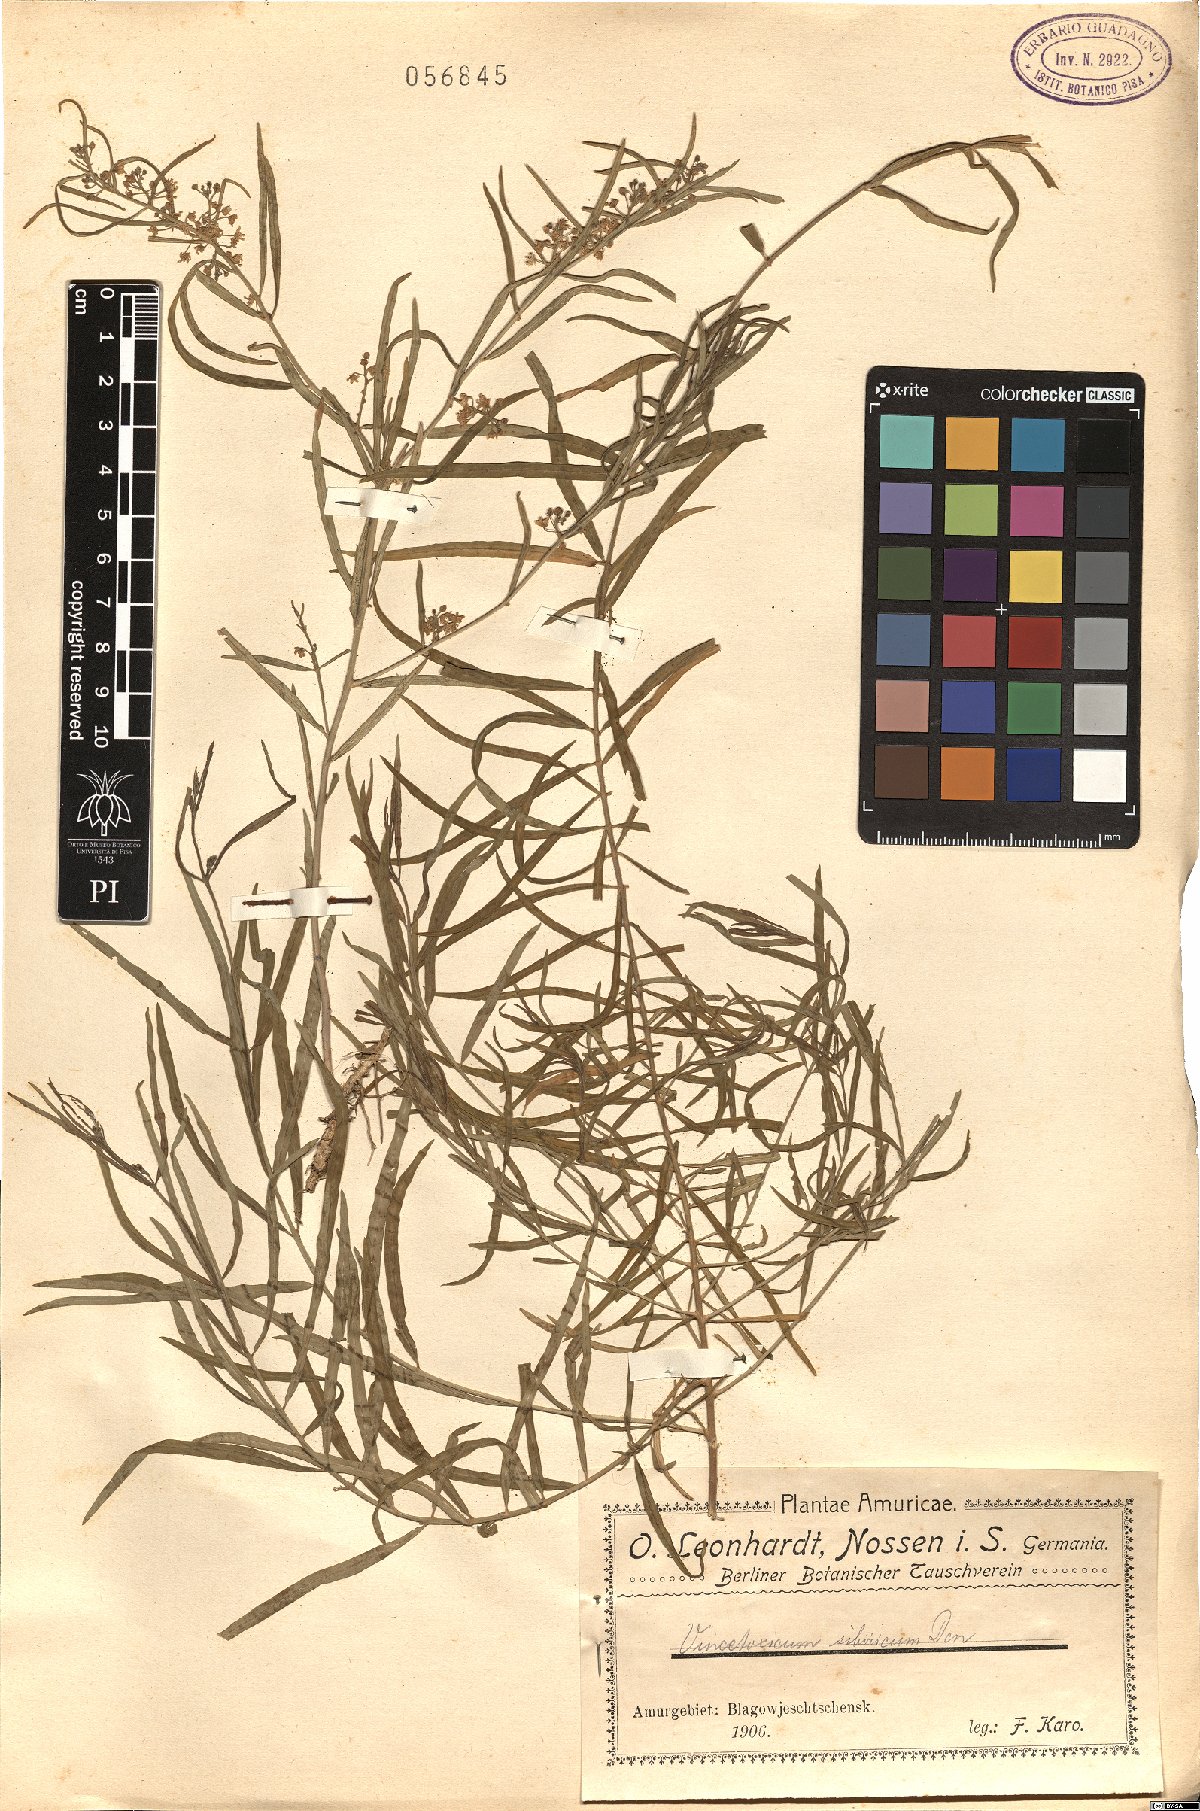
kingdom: Plantae
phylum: Tracheophyta
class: Magnoliopsida
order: Gentianales
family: Apocynaceae
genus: Cynanchum
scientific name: Cynanchum thesioides
